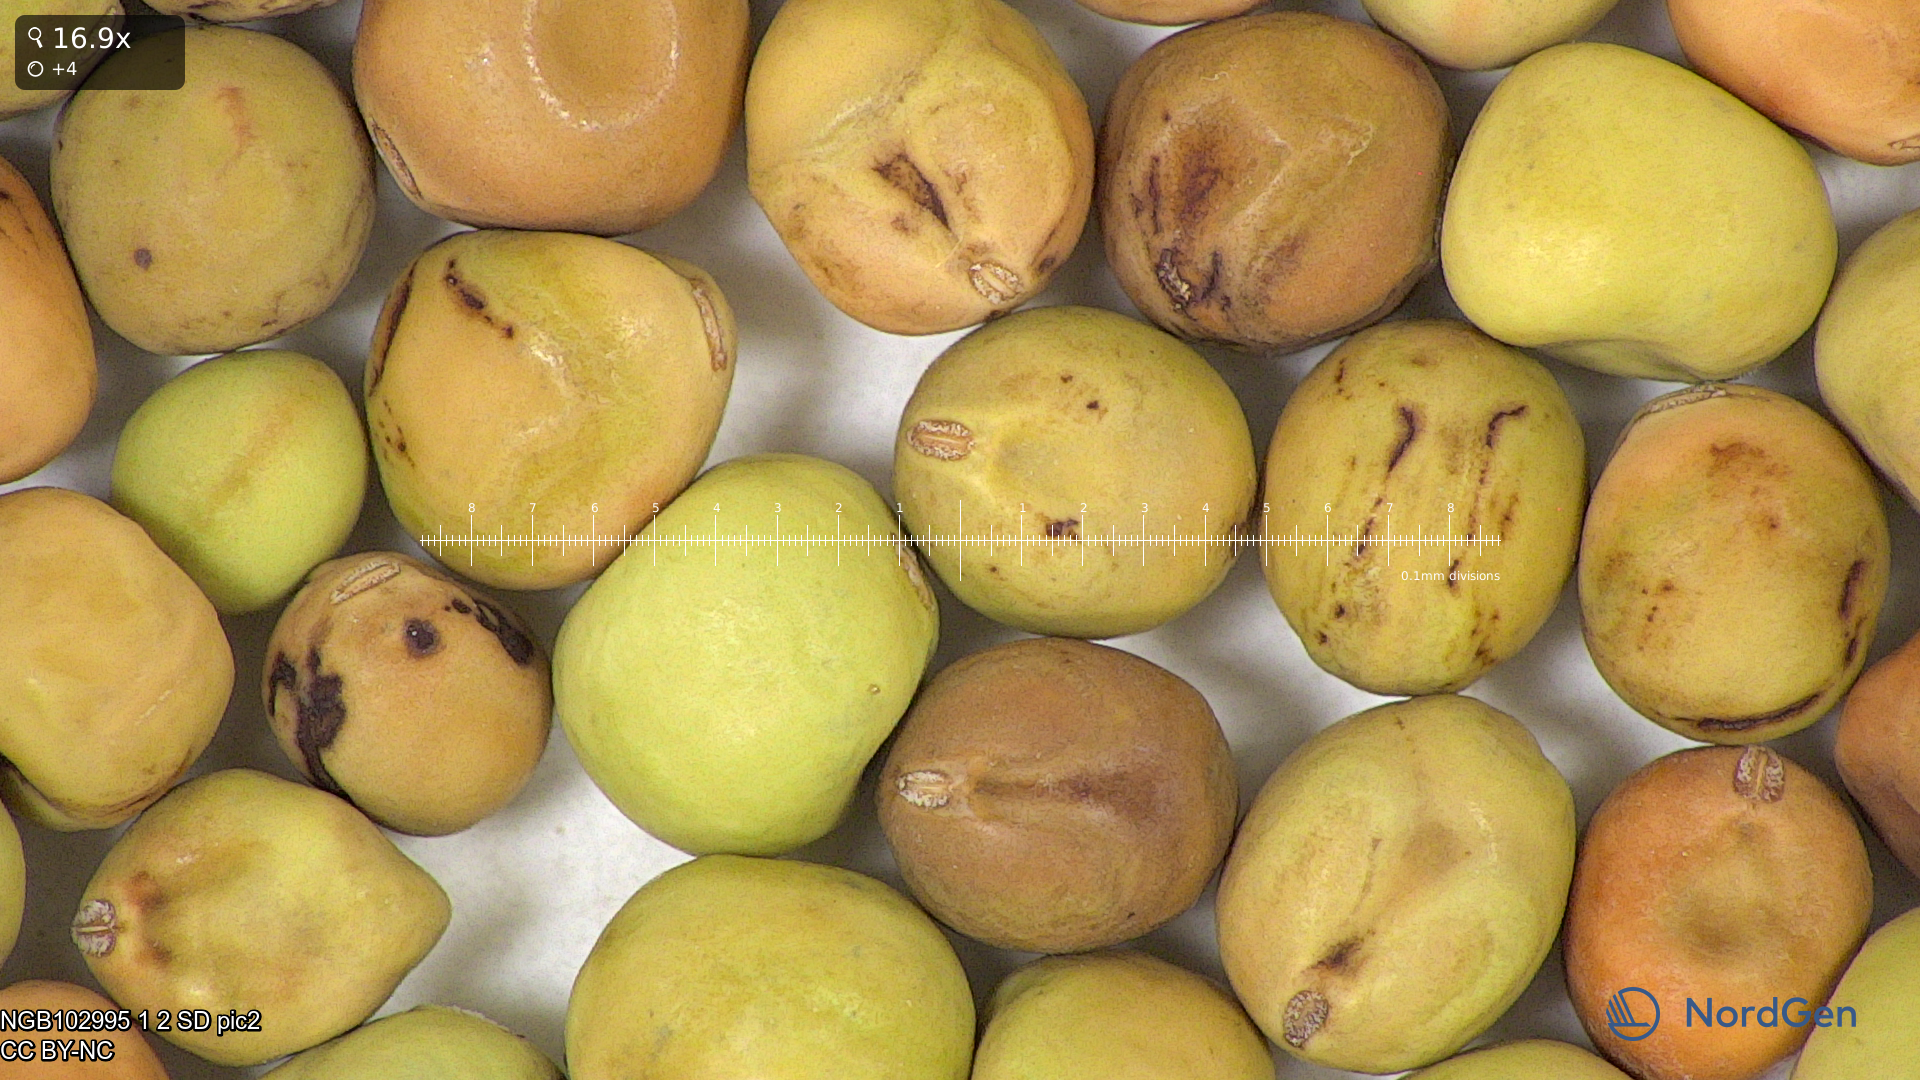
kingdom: Plantae
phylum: Tracheophyta
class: Magnoliopsida
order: Fabales
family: Fabaceae
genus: Lathyrus
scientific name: Lathyrus oleraceus
